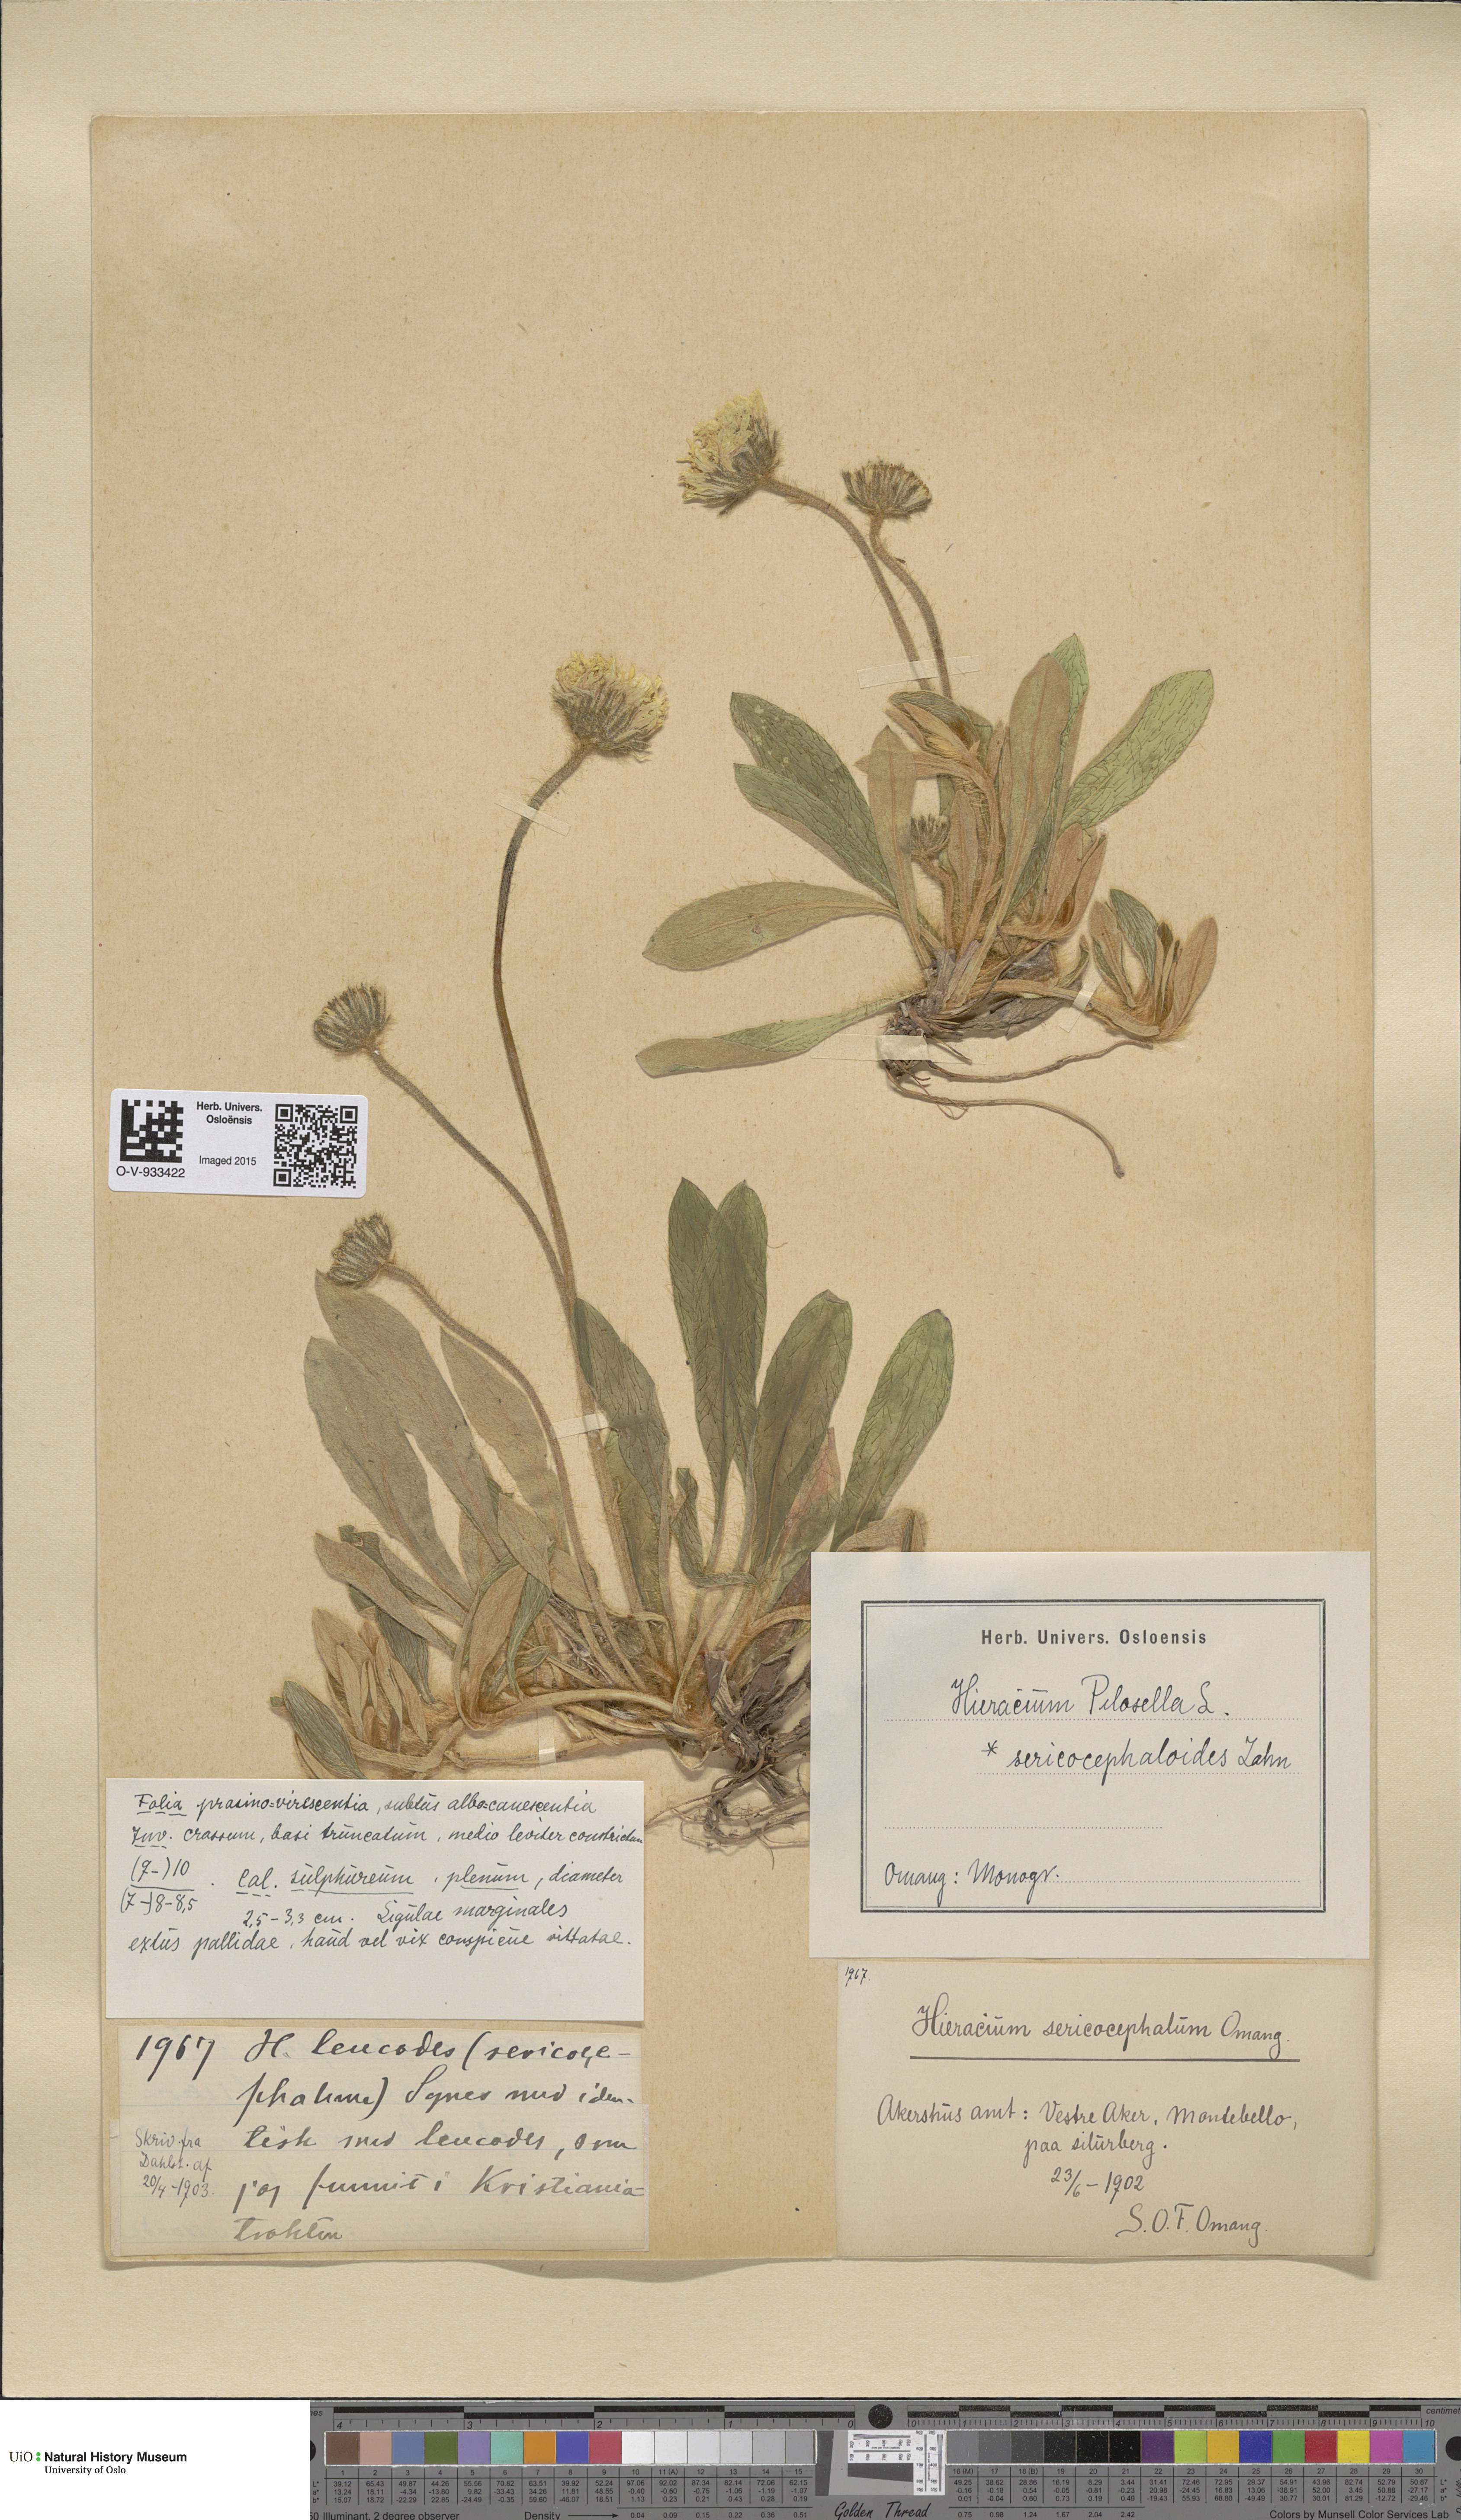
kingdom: Plantae
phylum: Tracheophyta
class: Magnoliopsida
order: Asterales
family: Asteraceae
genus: Pilosella
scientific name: Pilosella officinarum
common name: Mouse-ear hawkweed
